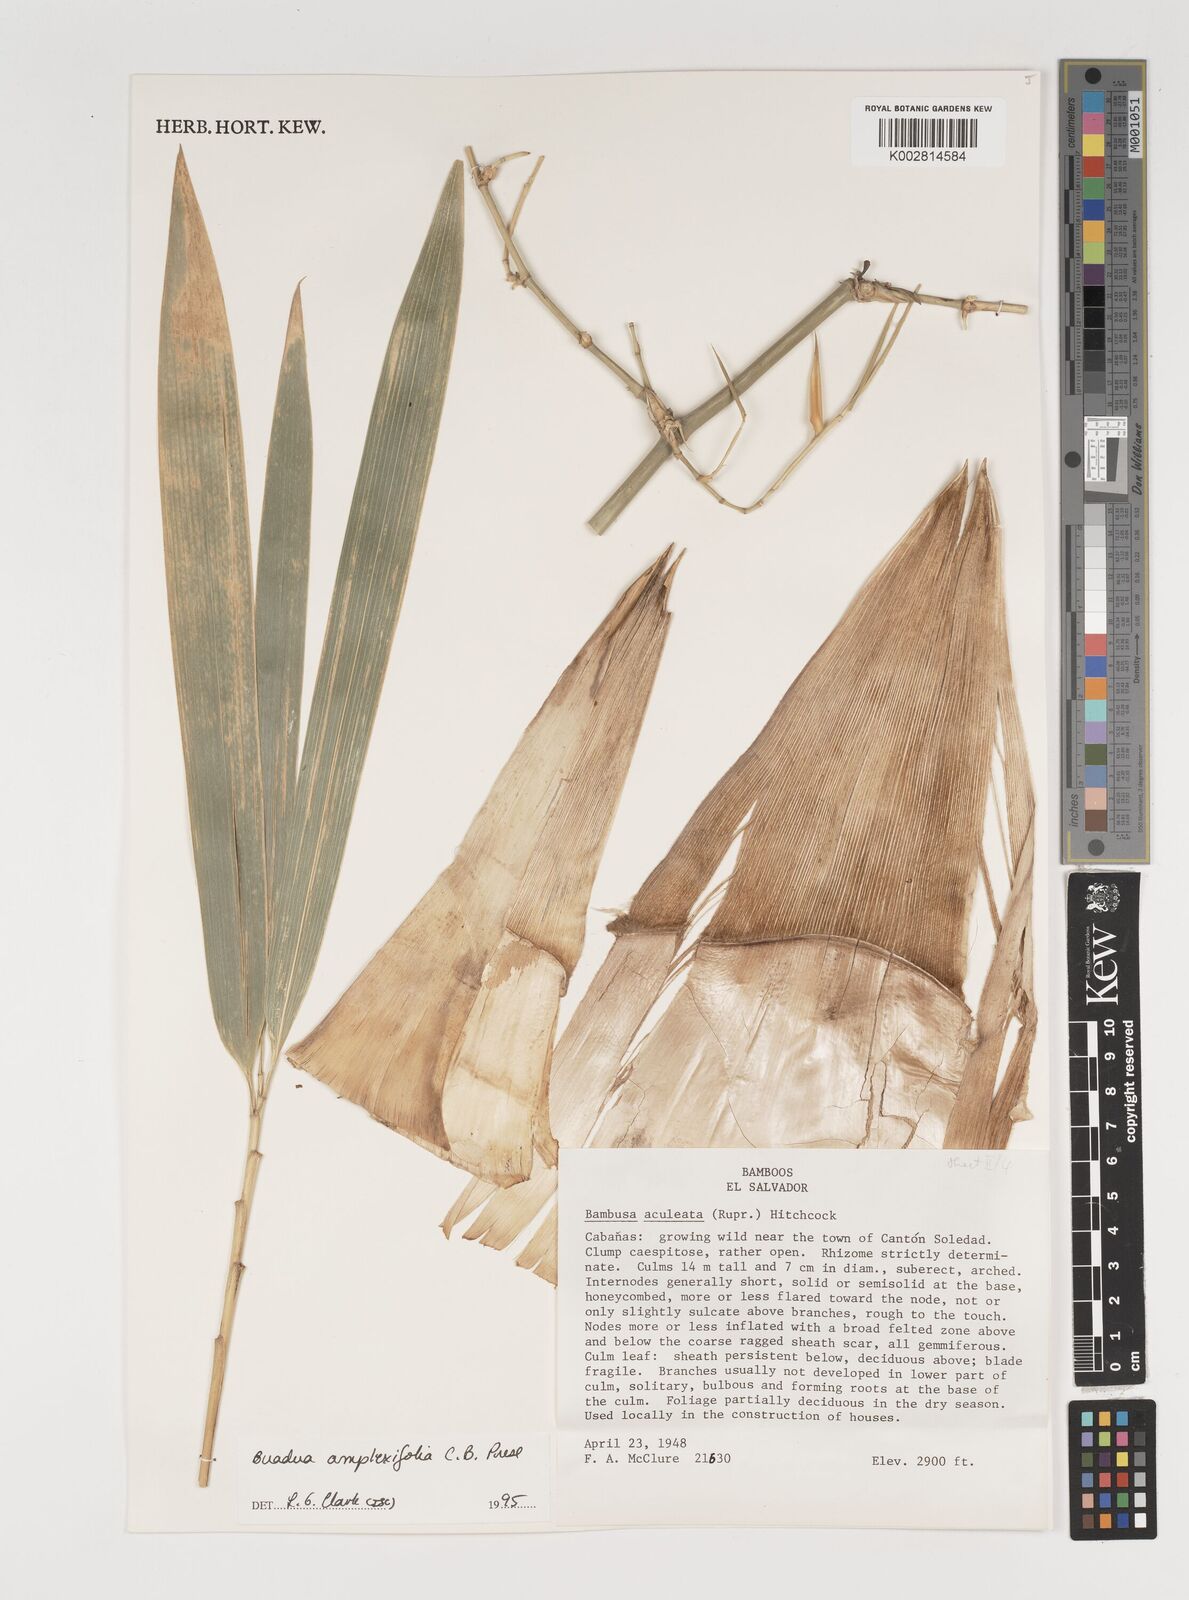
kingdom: Plantae
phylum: Tracheophyta
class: Liliopsida
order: Poales
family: Poaceae
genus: Guadua
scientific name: Guadua amplexifolia
